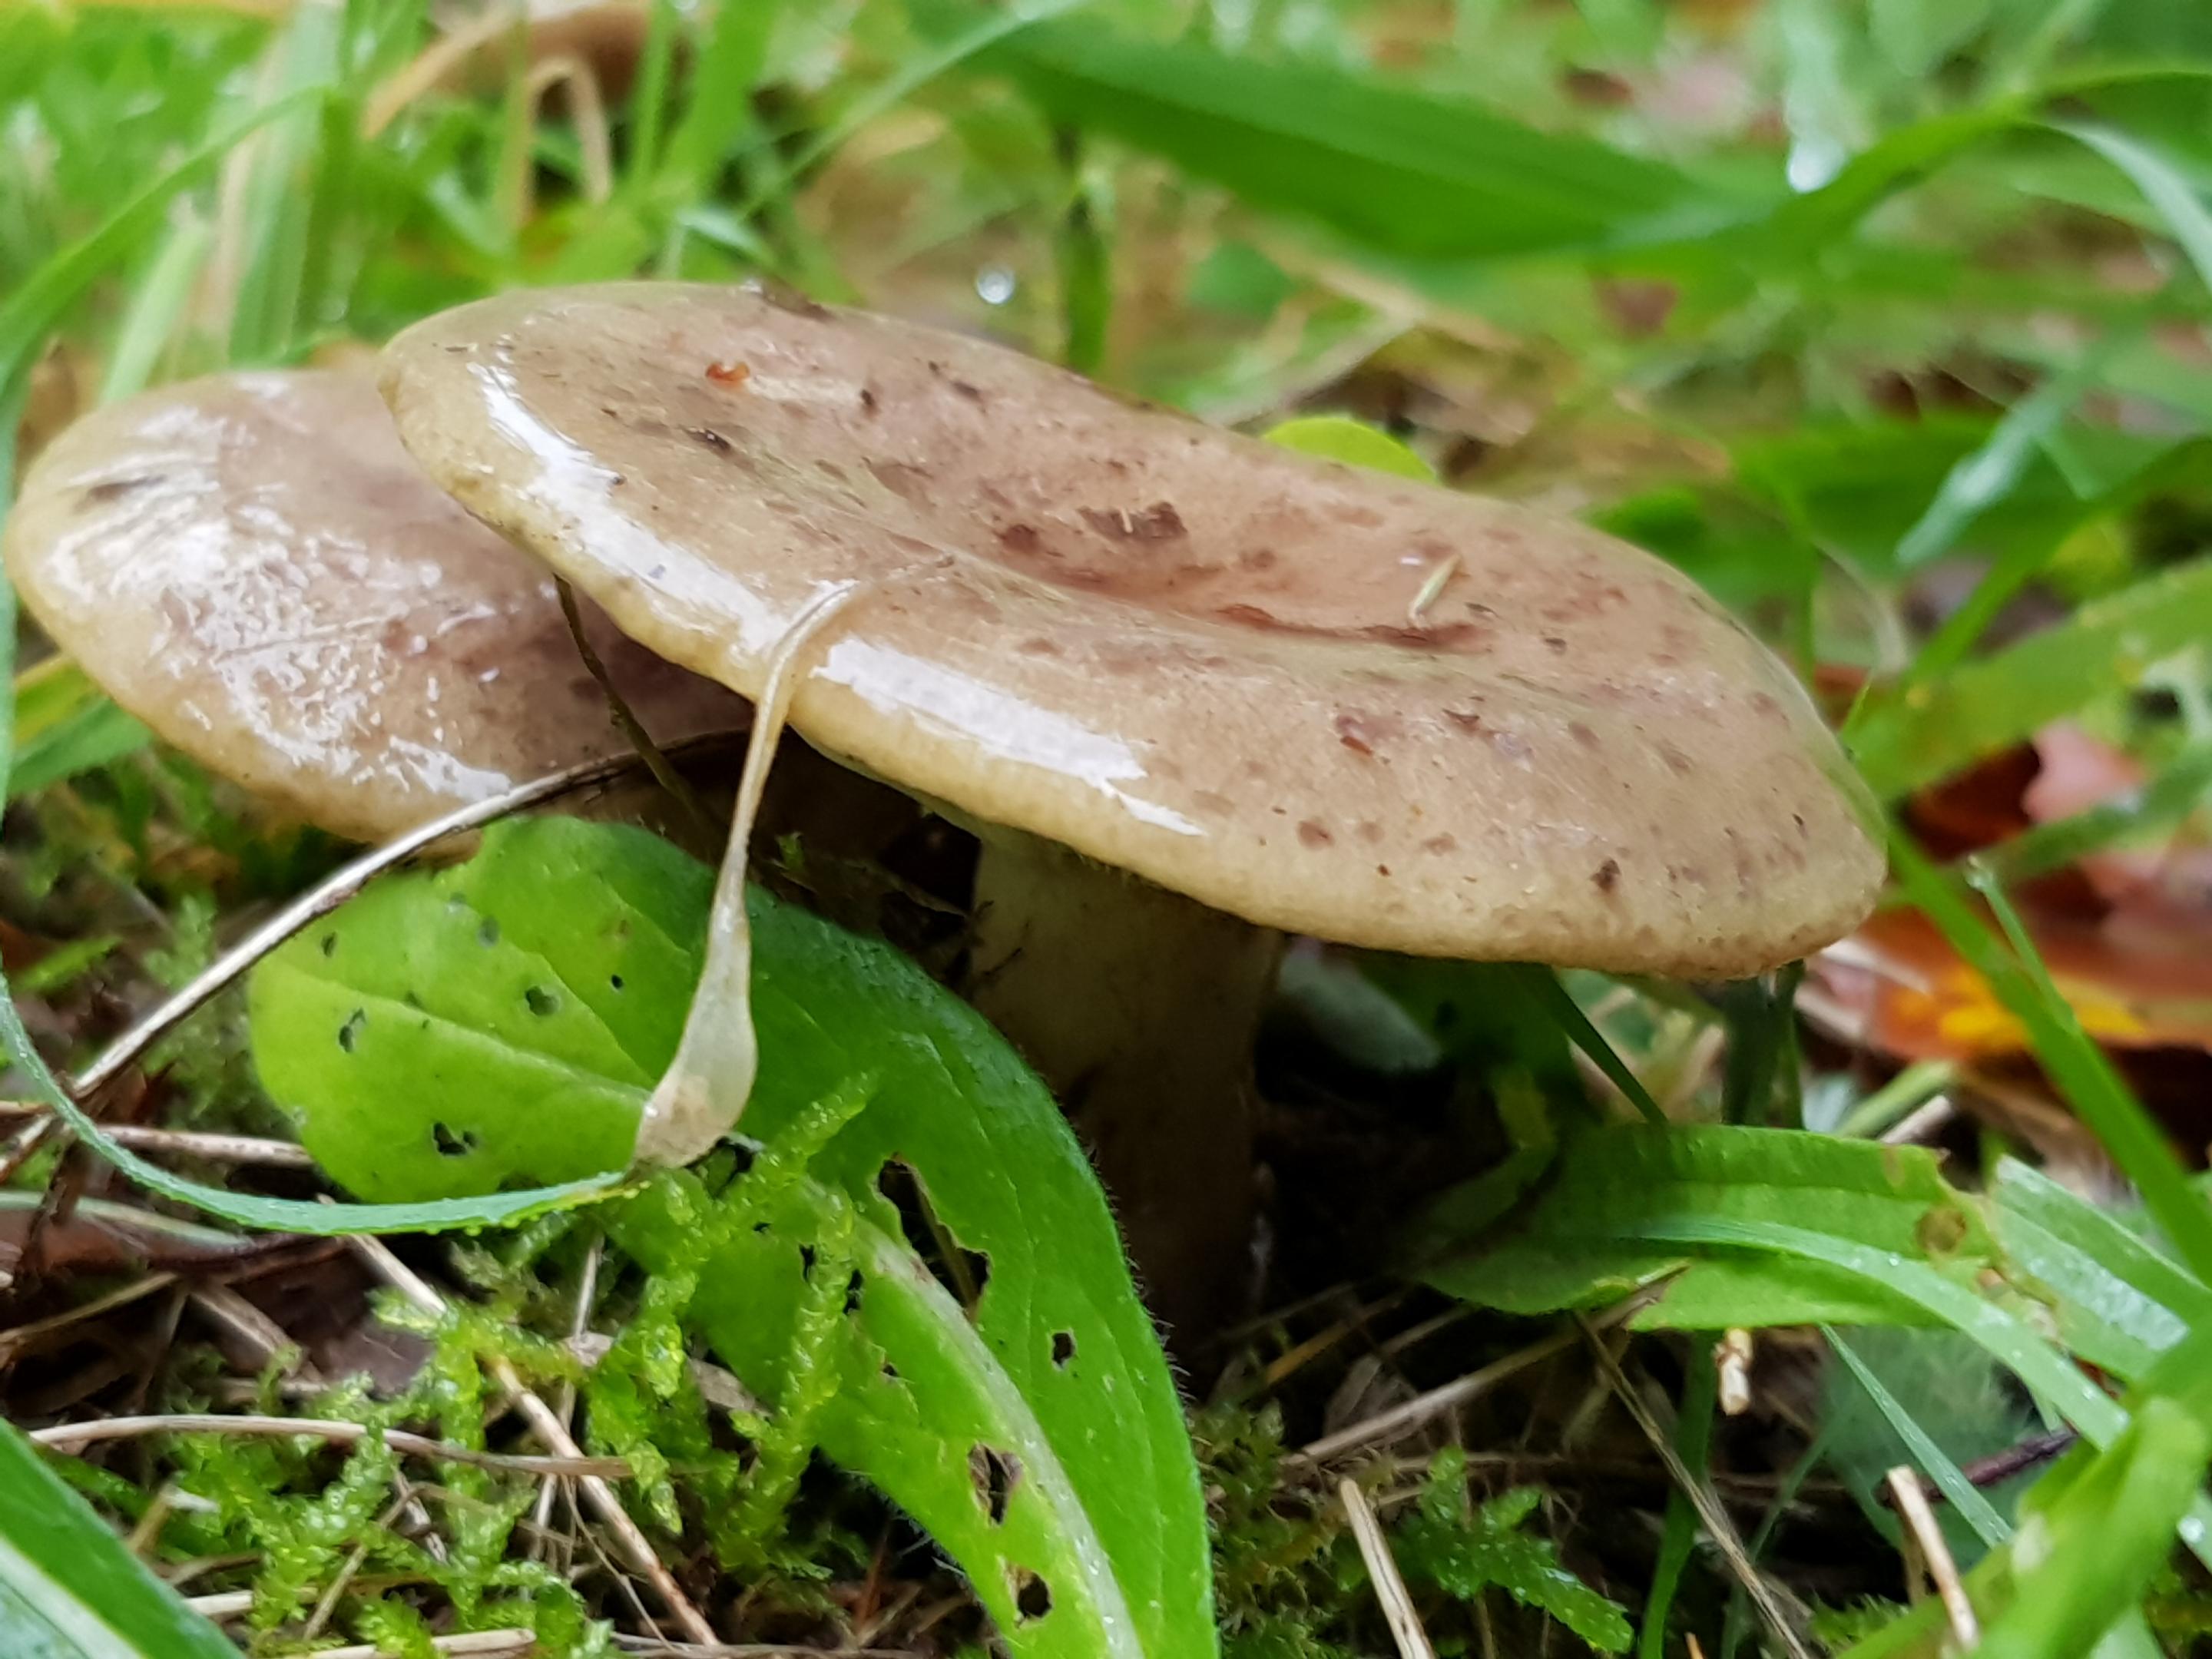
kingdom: Fungi
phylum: Basidiomycota
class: Agaricomycetes
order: Russulales
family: Russulaceae
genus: Lactarius
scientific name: Lactarius blennius
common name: dråbeplettet mælkehat
